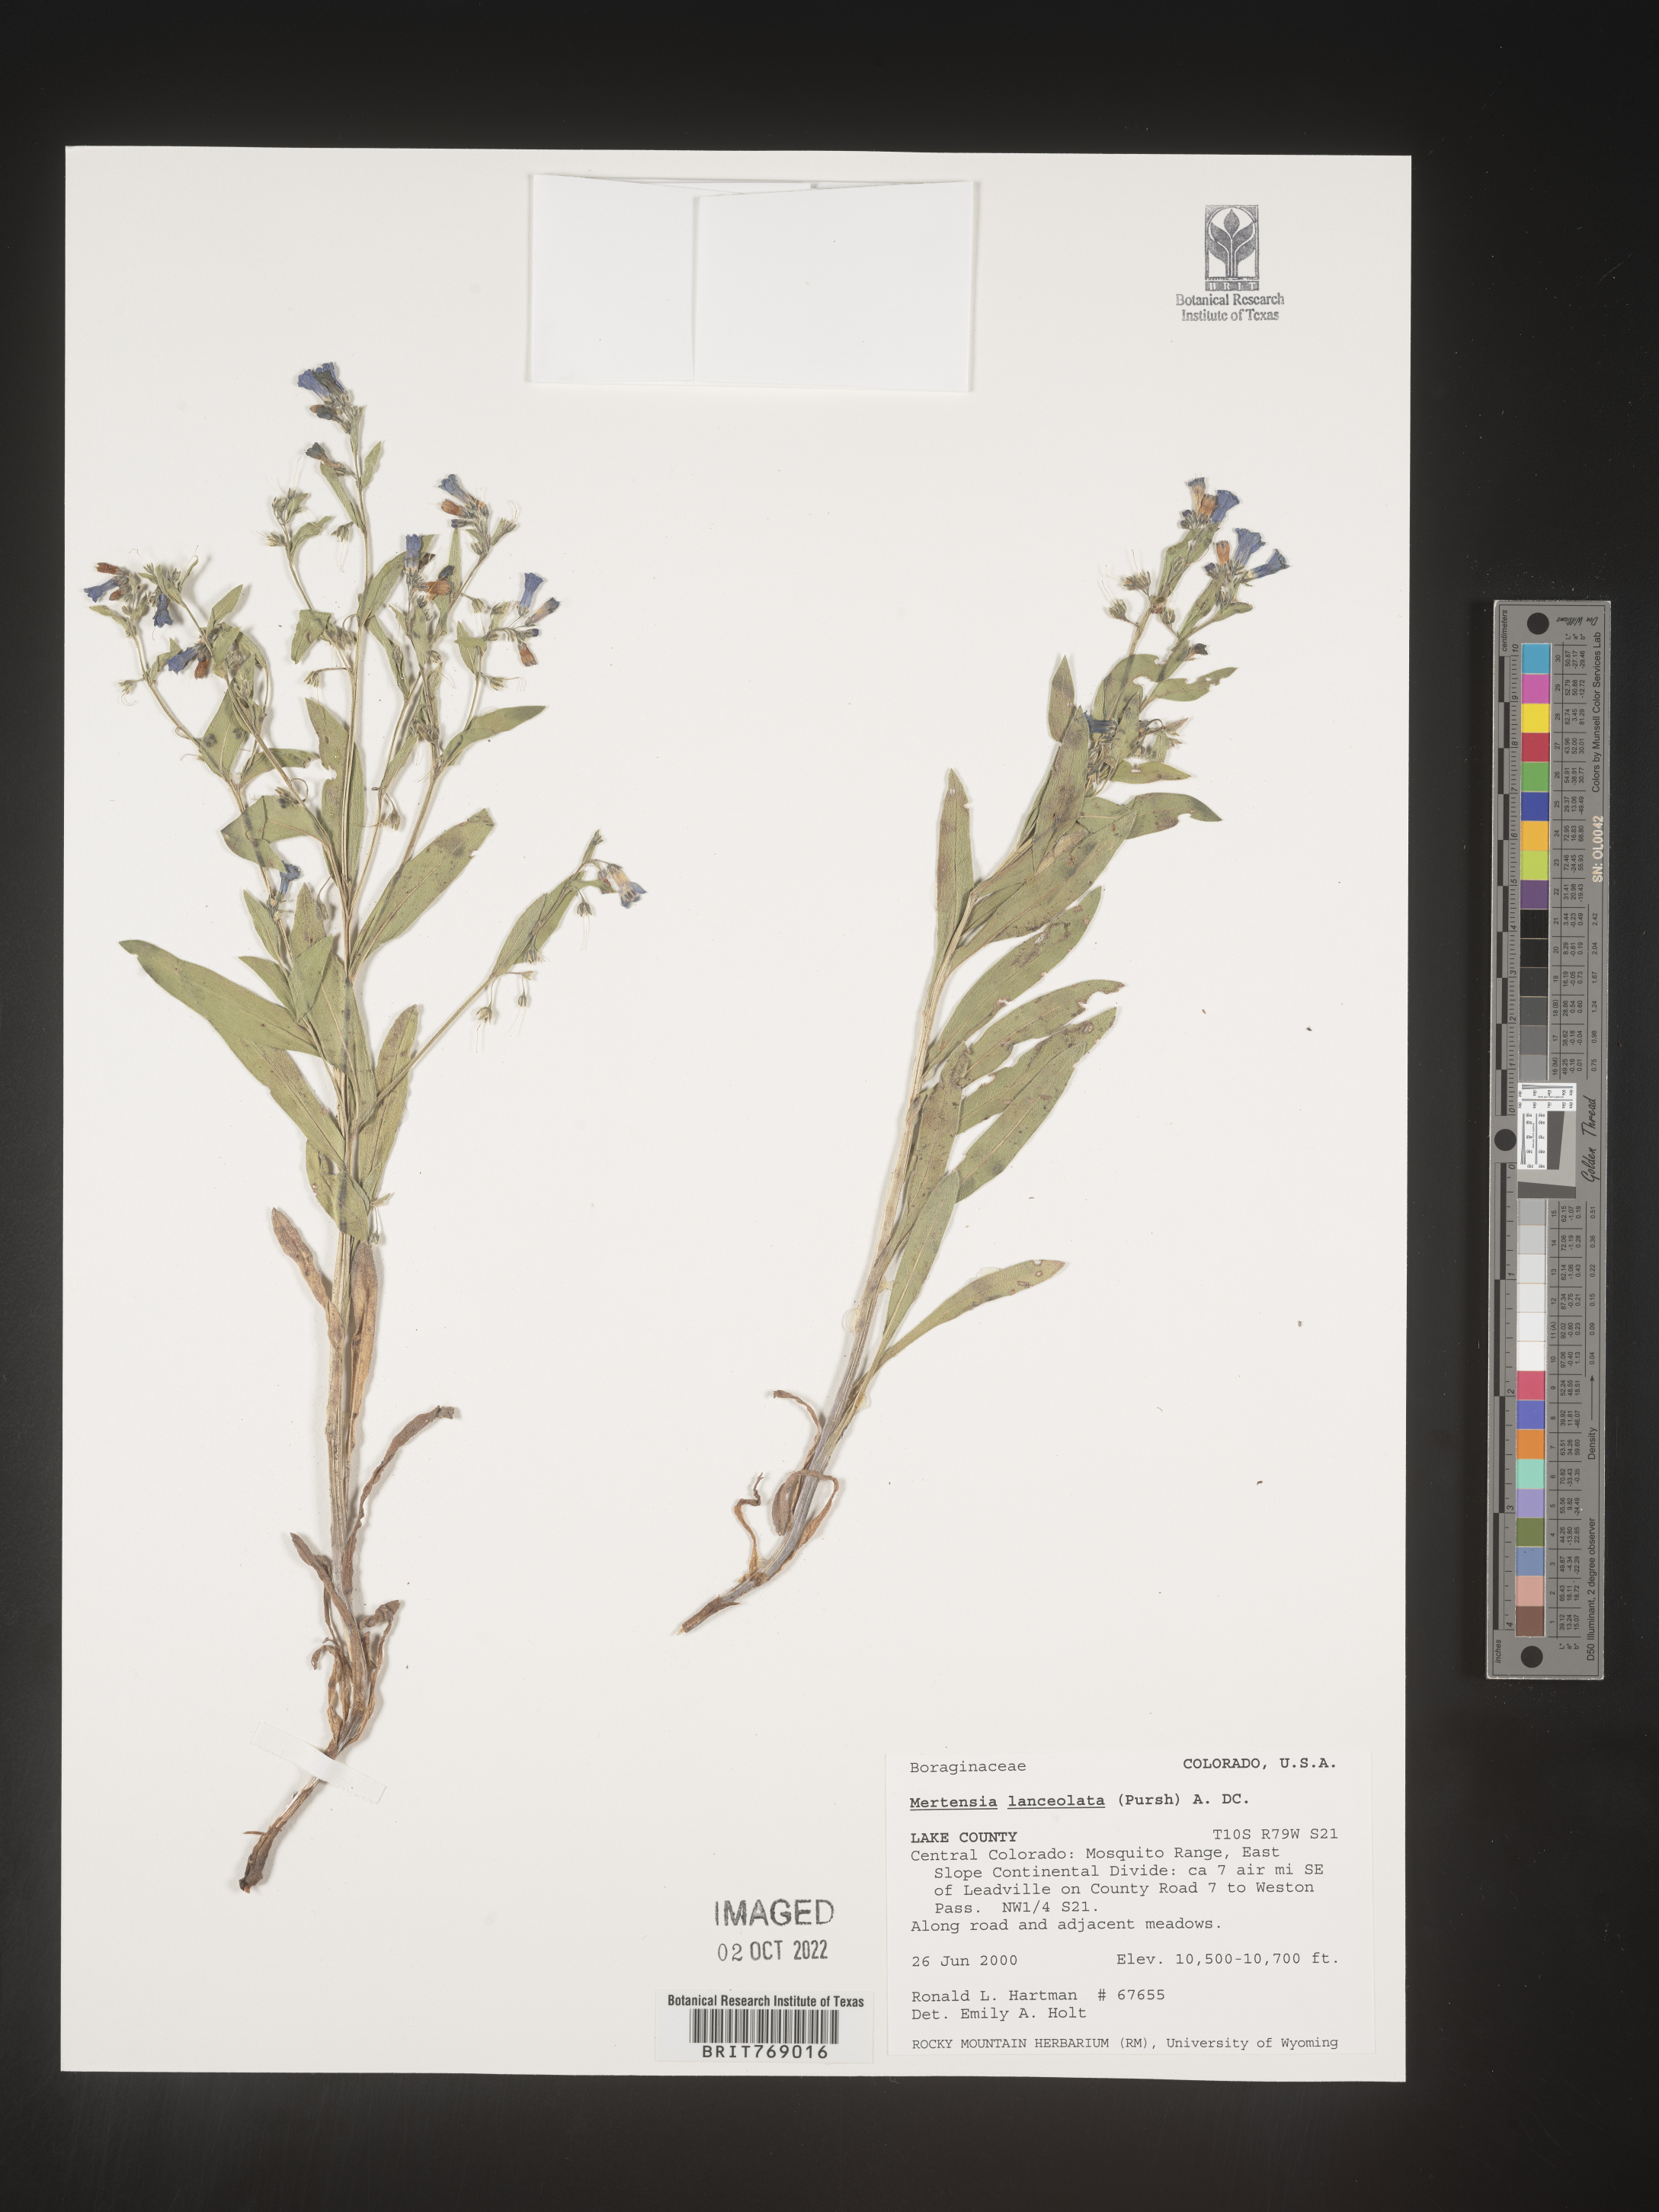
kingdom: Plantae
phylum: Tracheophyta
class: Magnoliopsida
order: Boraginales
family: Boraginaceae
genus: Mertensia
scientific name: Mertensia
